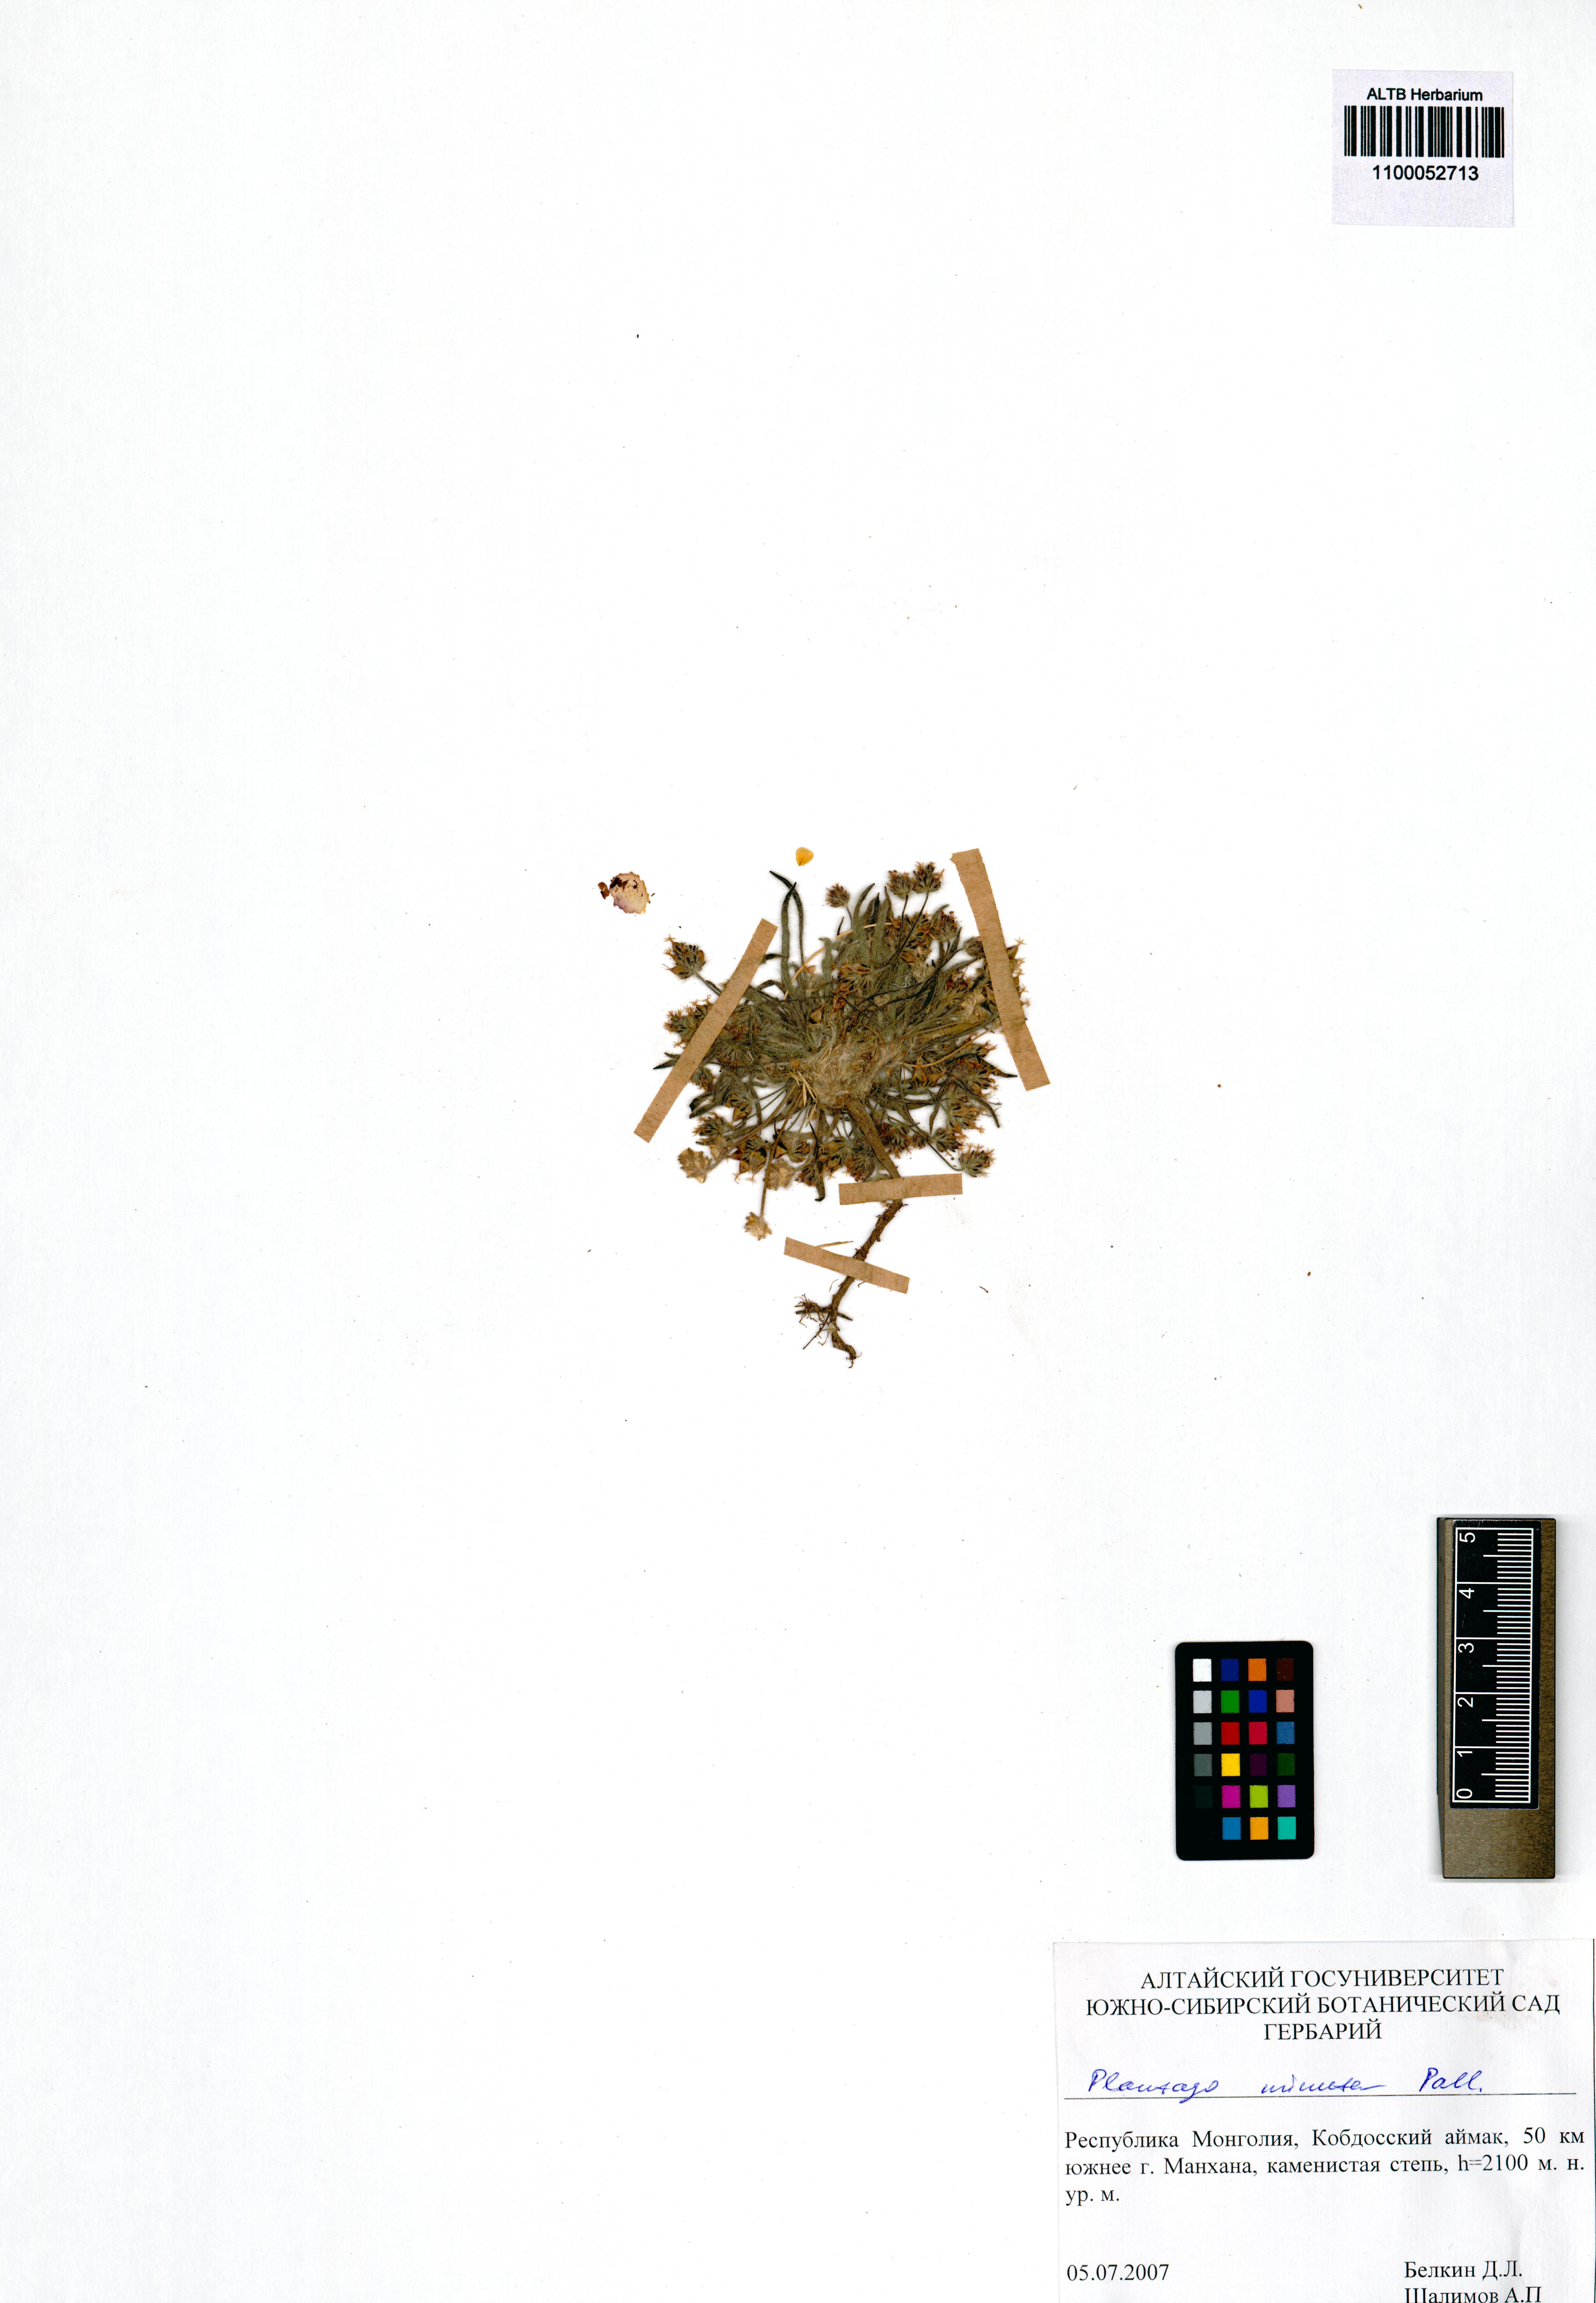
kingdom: Plantae
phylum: Tracheophyta
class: Magnoliopsida
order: Lamiales
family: Plantaginaceae
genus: Plantago
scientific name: Plantago minuta
